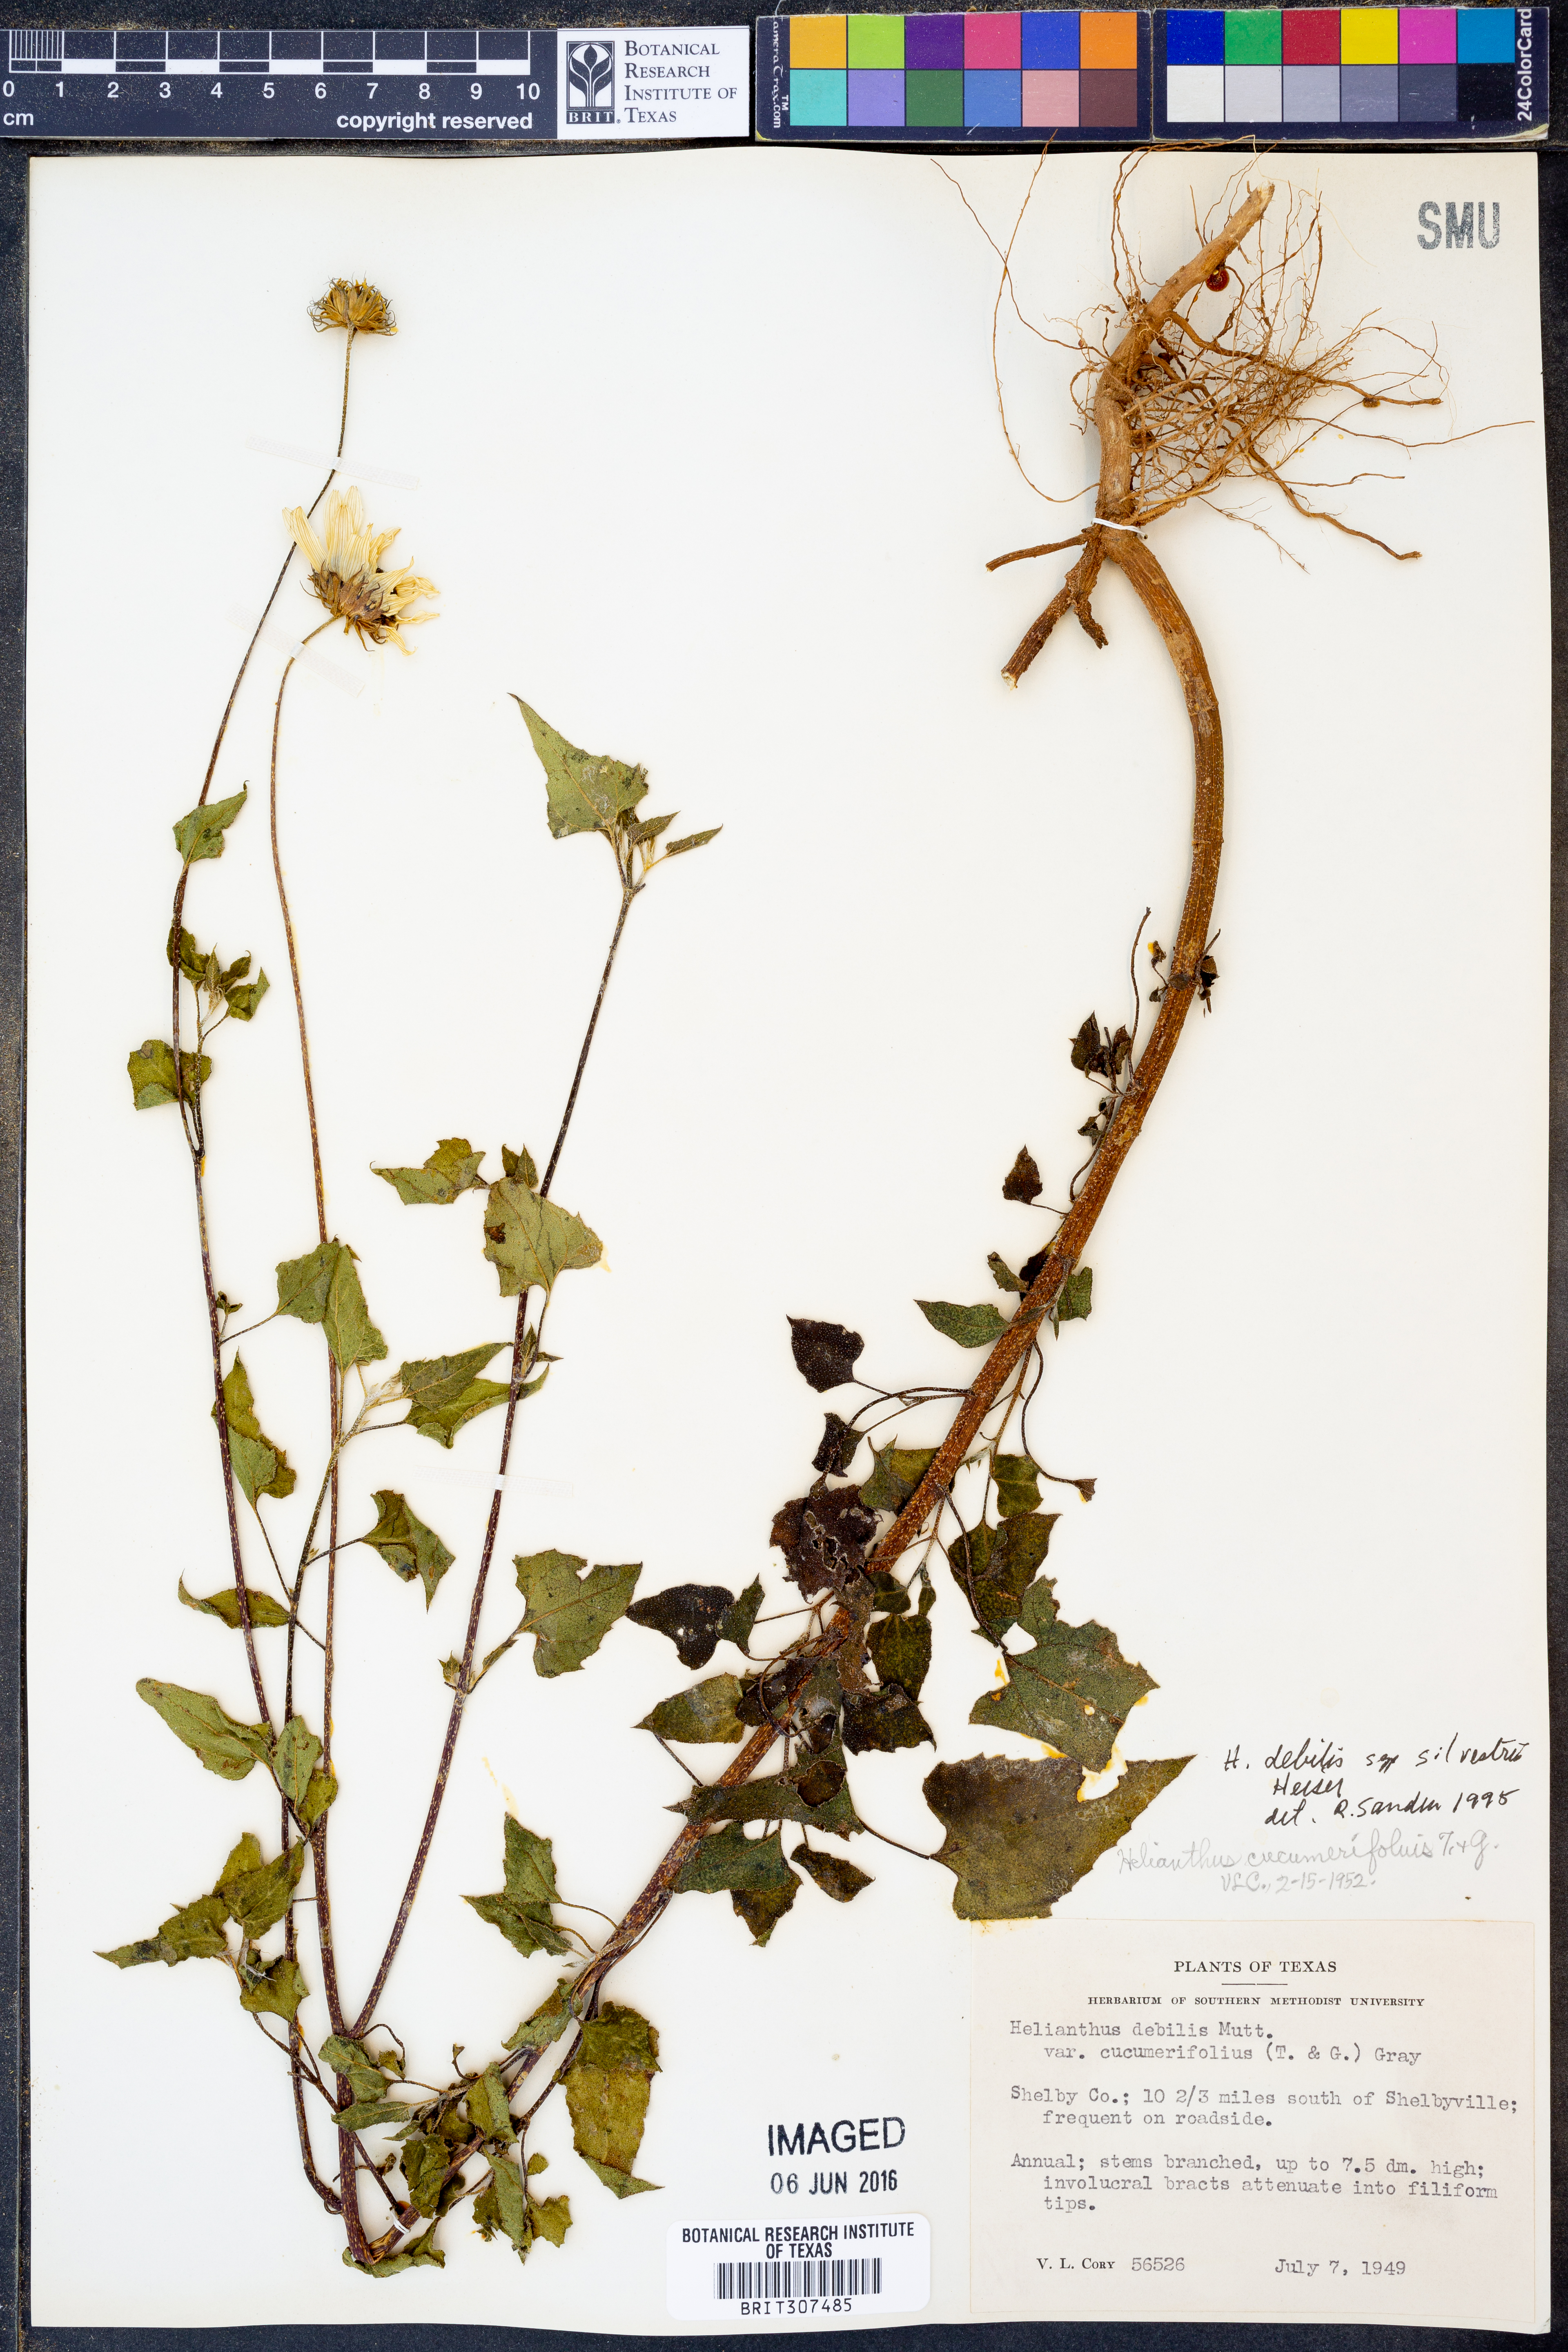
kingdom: Plantae
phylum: Tracheophyta
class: Magnoliopsida
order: Asterales
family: Asteraceae
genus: Helianthus
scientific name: Helianthus debilis
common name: Weak sunflower
